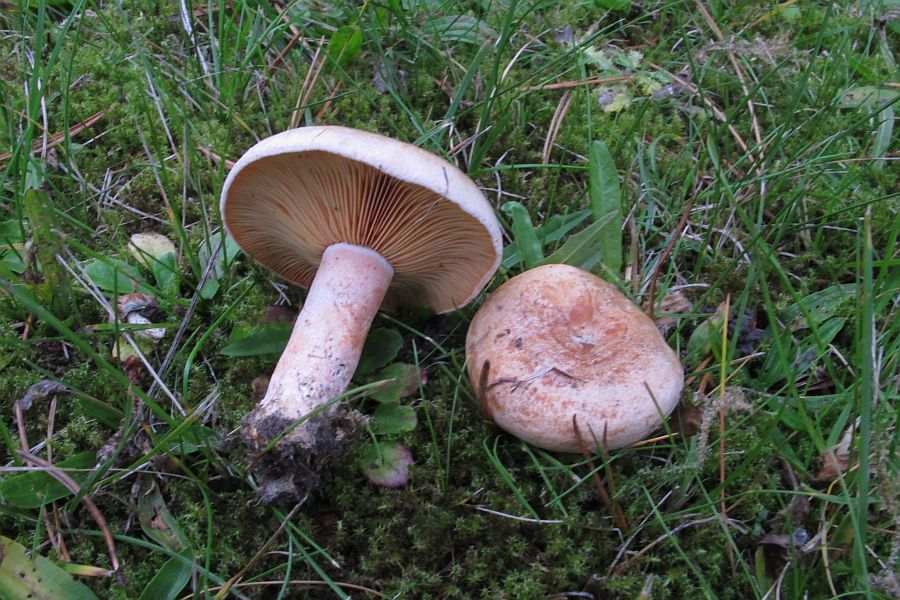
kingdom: Fungi
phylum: Basidiomycota
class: Agaricomycetes
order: Russulales
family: Russulaceae
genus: Lactarius
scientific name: Lactarius deliciosus
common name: velsmagende mælkehat
